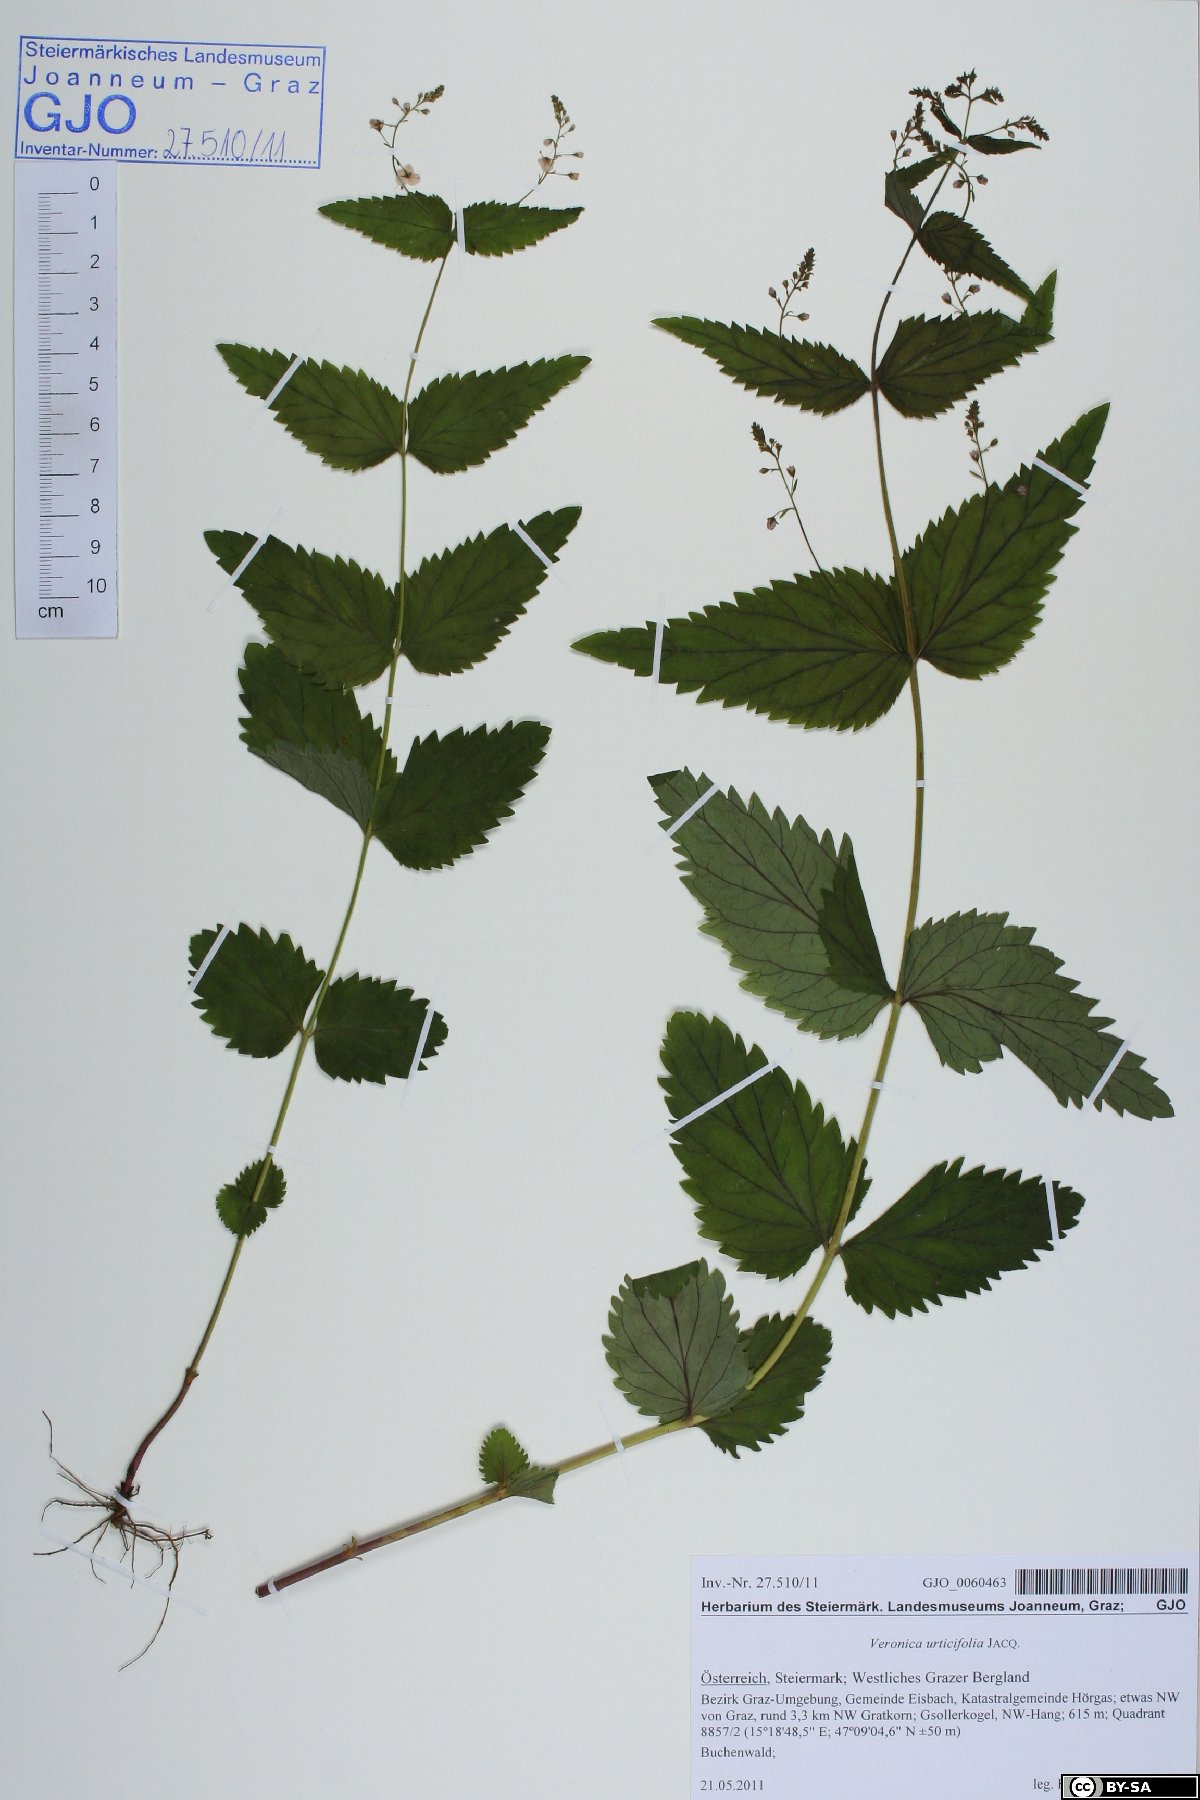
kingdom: Plantae
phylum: Tracheophyta
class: Magnoliopsida
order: Lamiales
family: Plantaginaceae
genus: Veronica
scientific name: Veronica urticifolia
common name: Nettle-leaf speedwell
